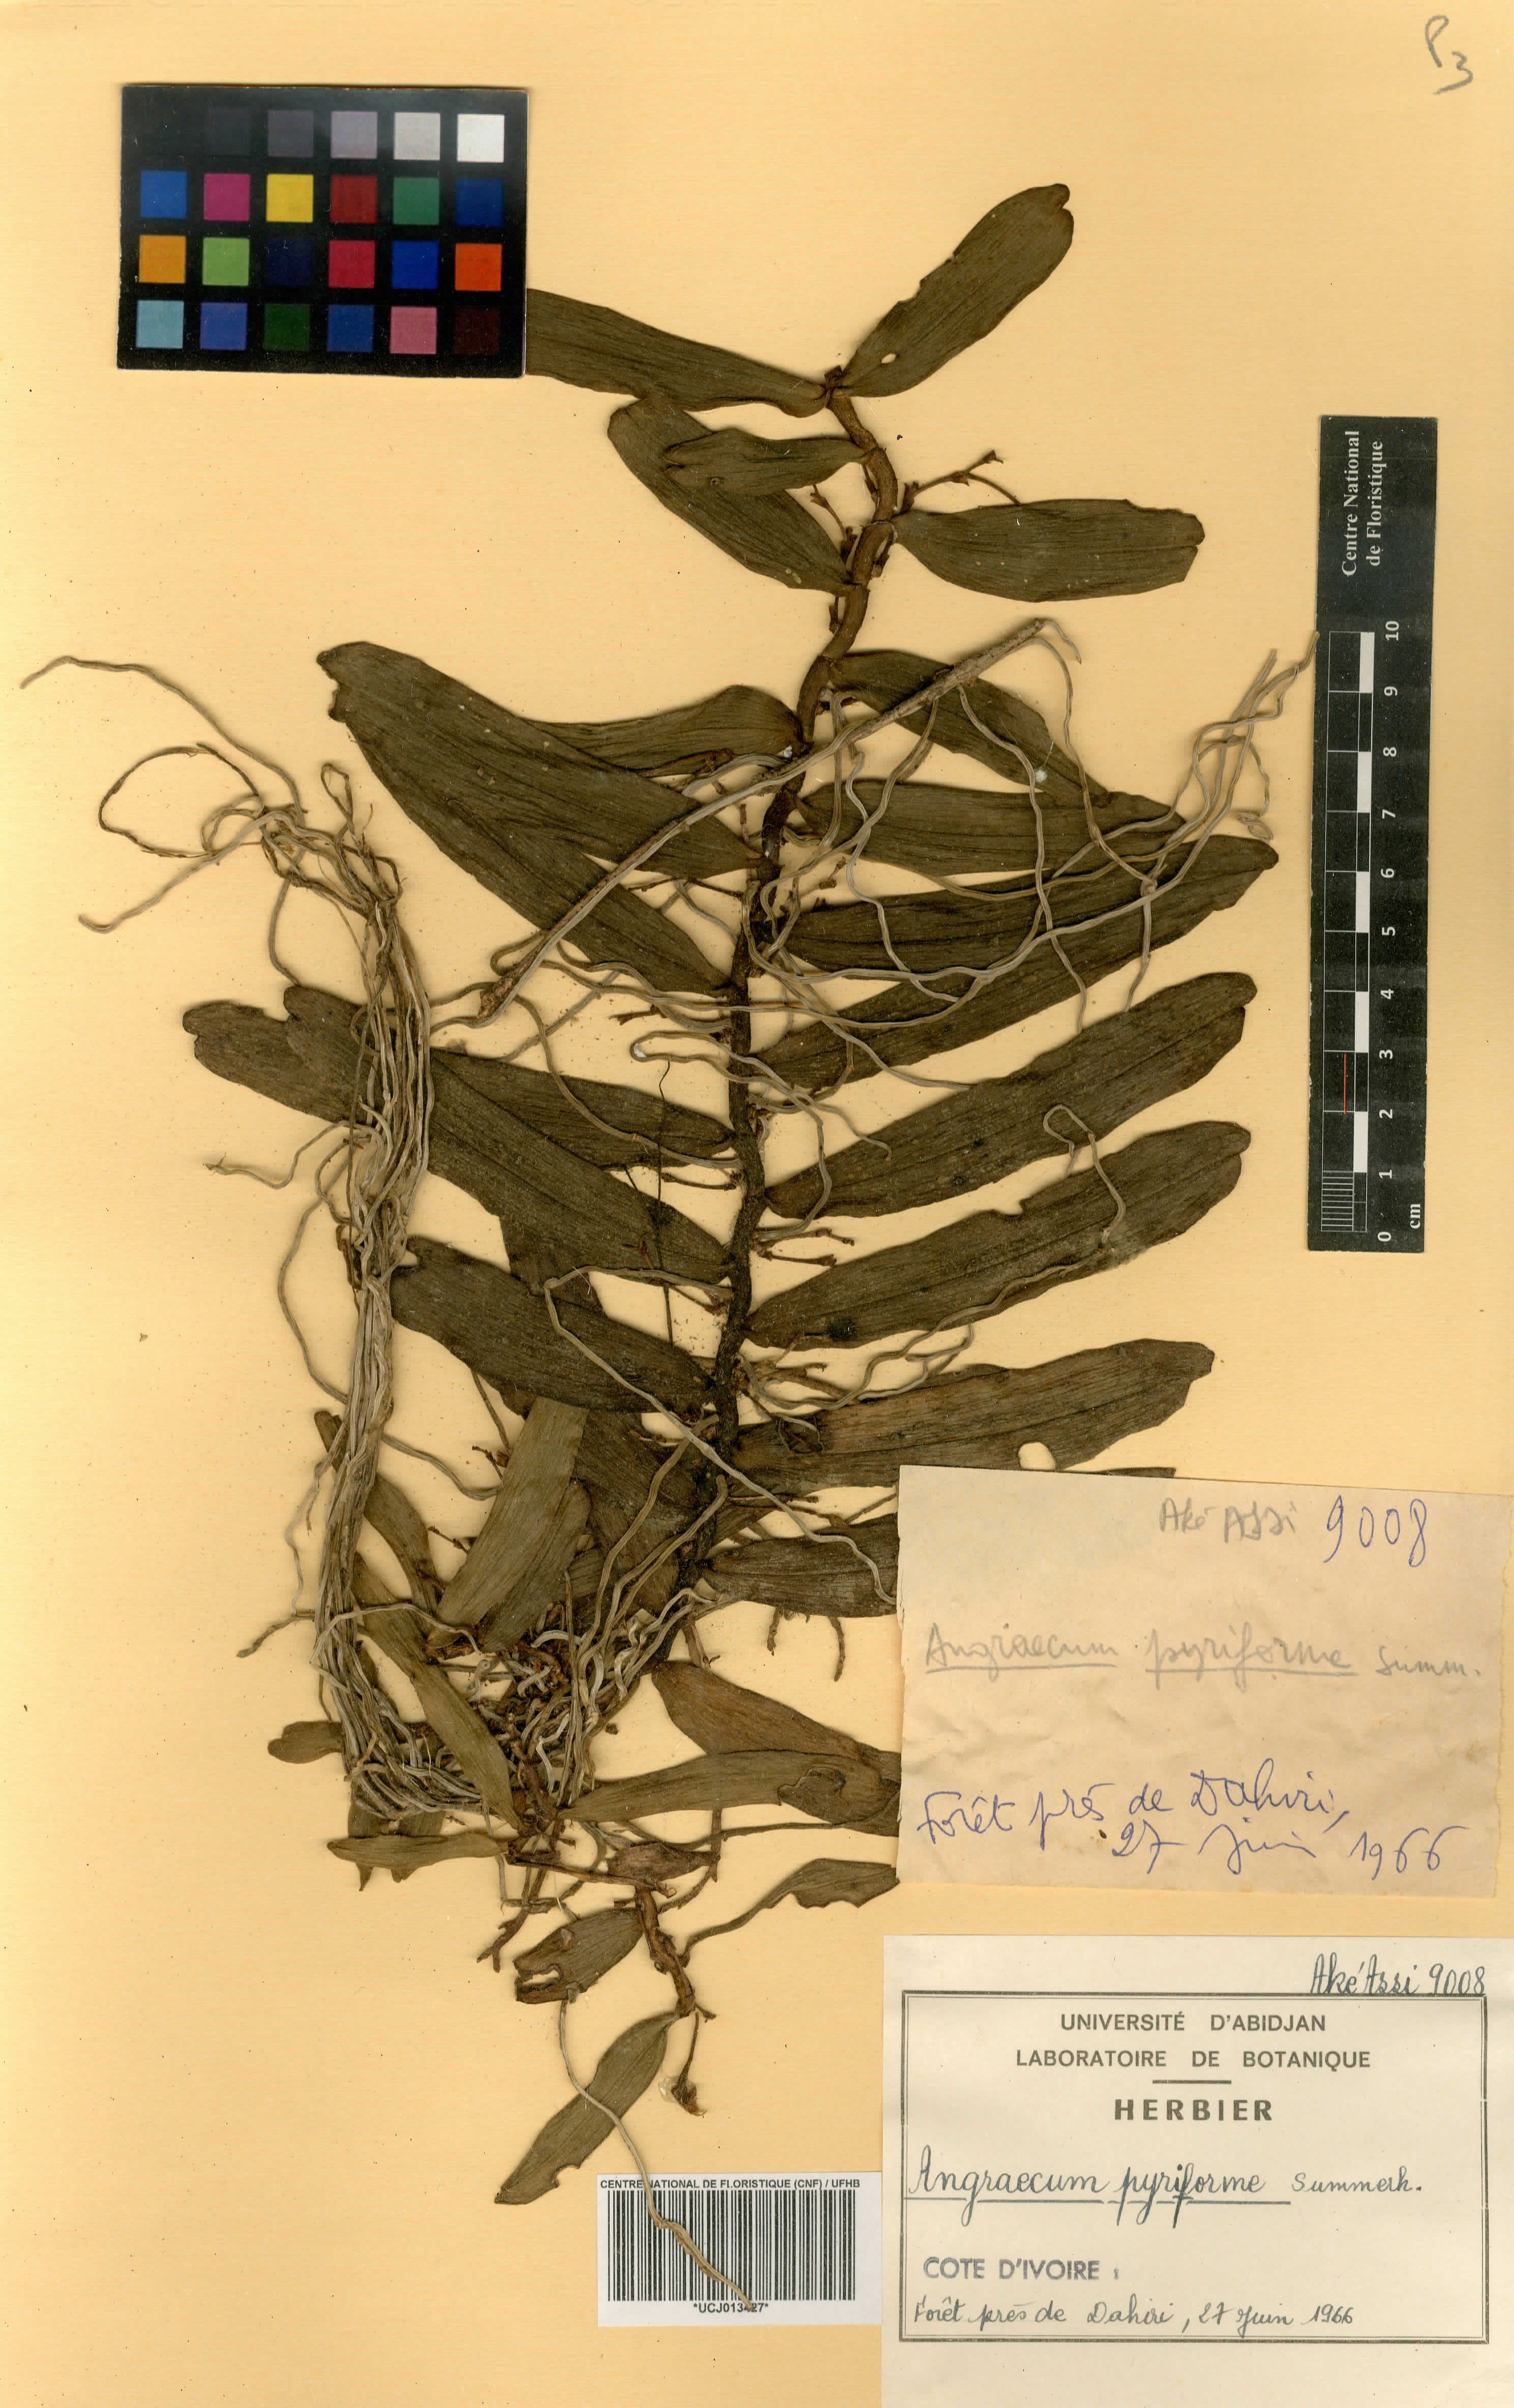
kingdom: Plantae
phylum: Tracheophyta
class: Liliopsida
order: Asparagales
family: Orchidaceae
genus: Angraecum
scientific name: Angraecum pyriforme
